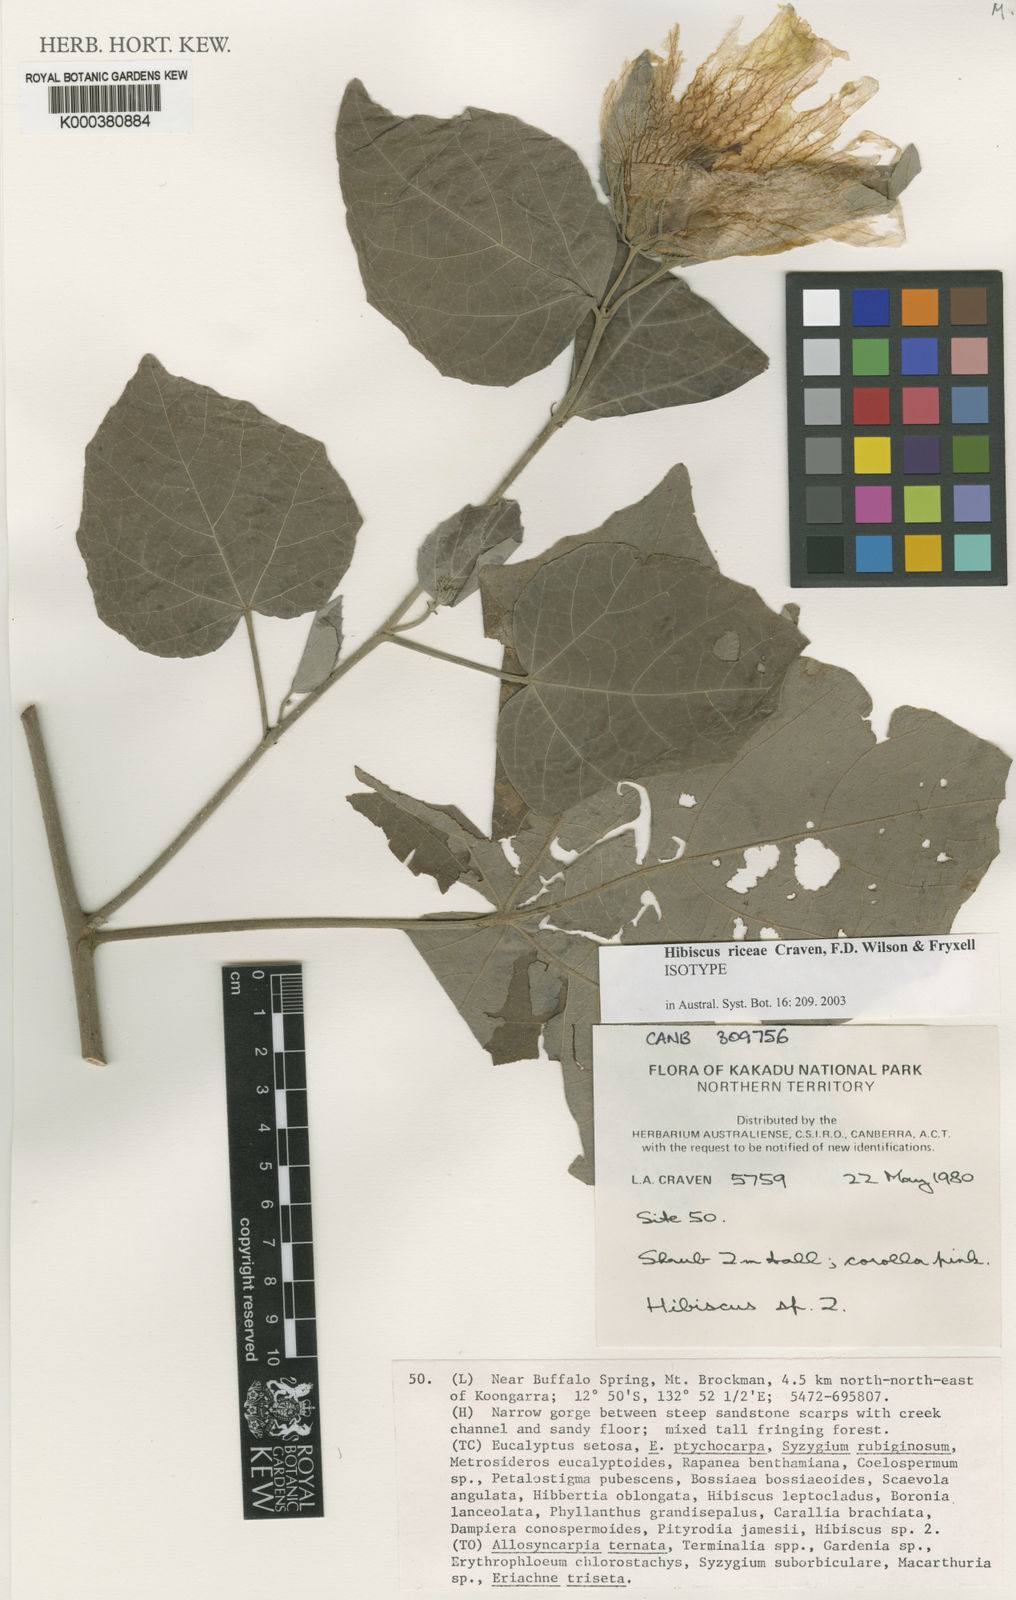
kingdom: Plantae
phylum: Tracheophyta
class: Magnoliopsida
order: Malvales
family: Malvaceae
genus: Hibiscus
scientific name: Hibiscus riceae
